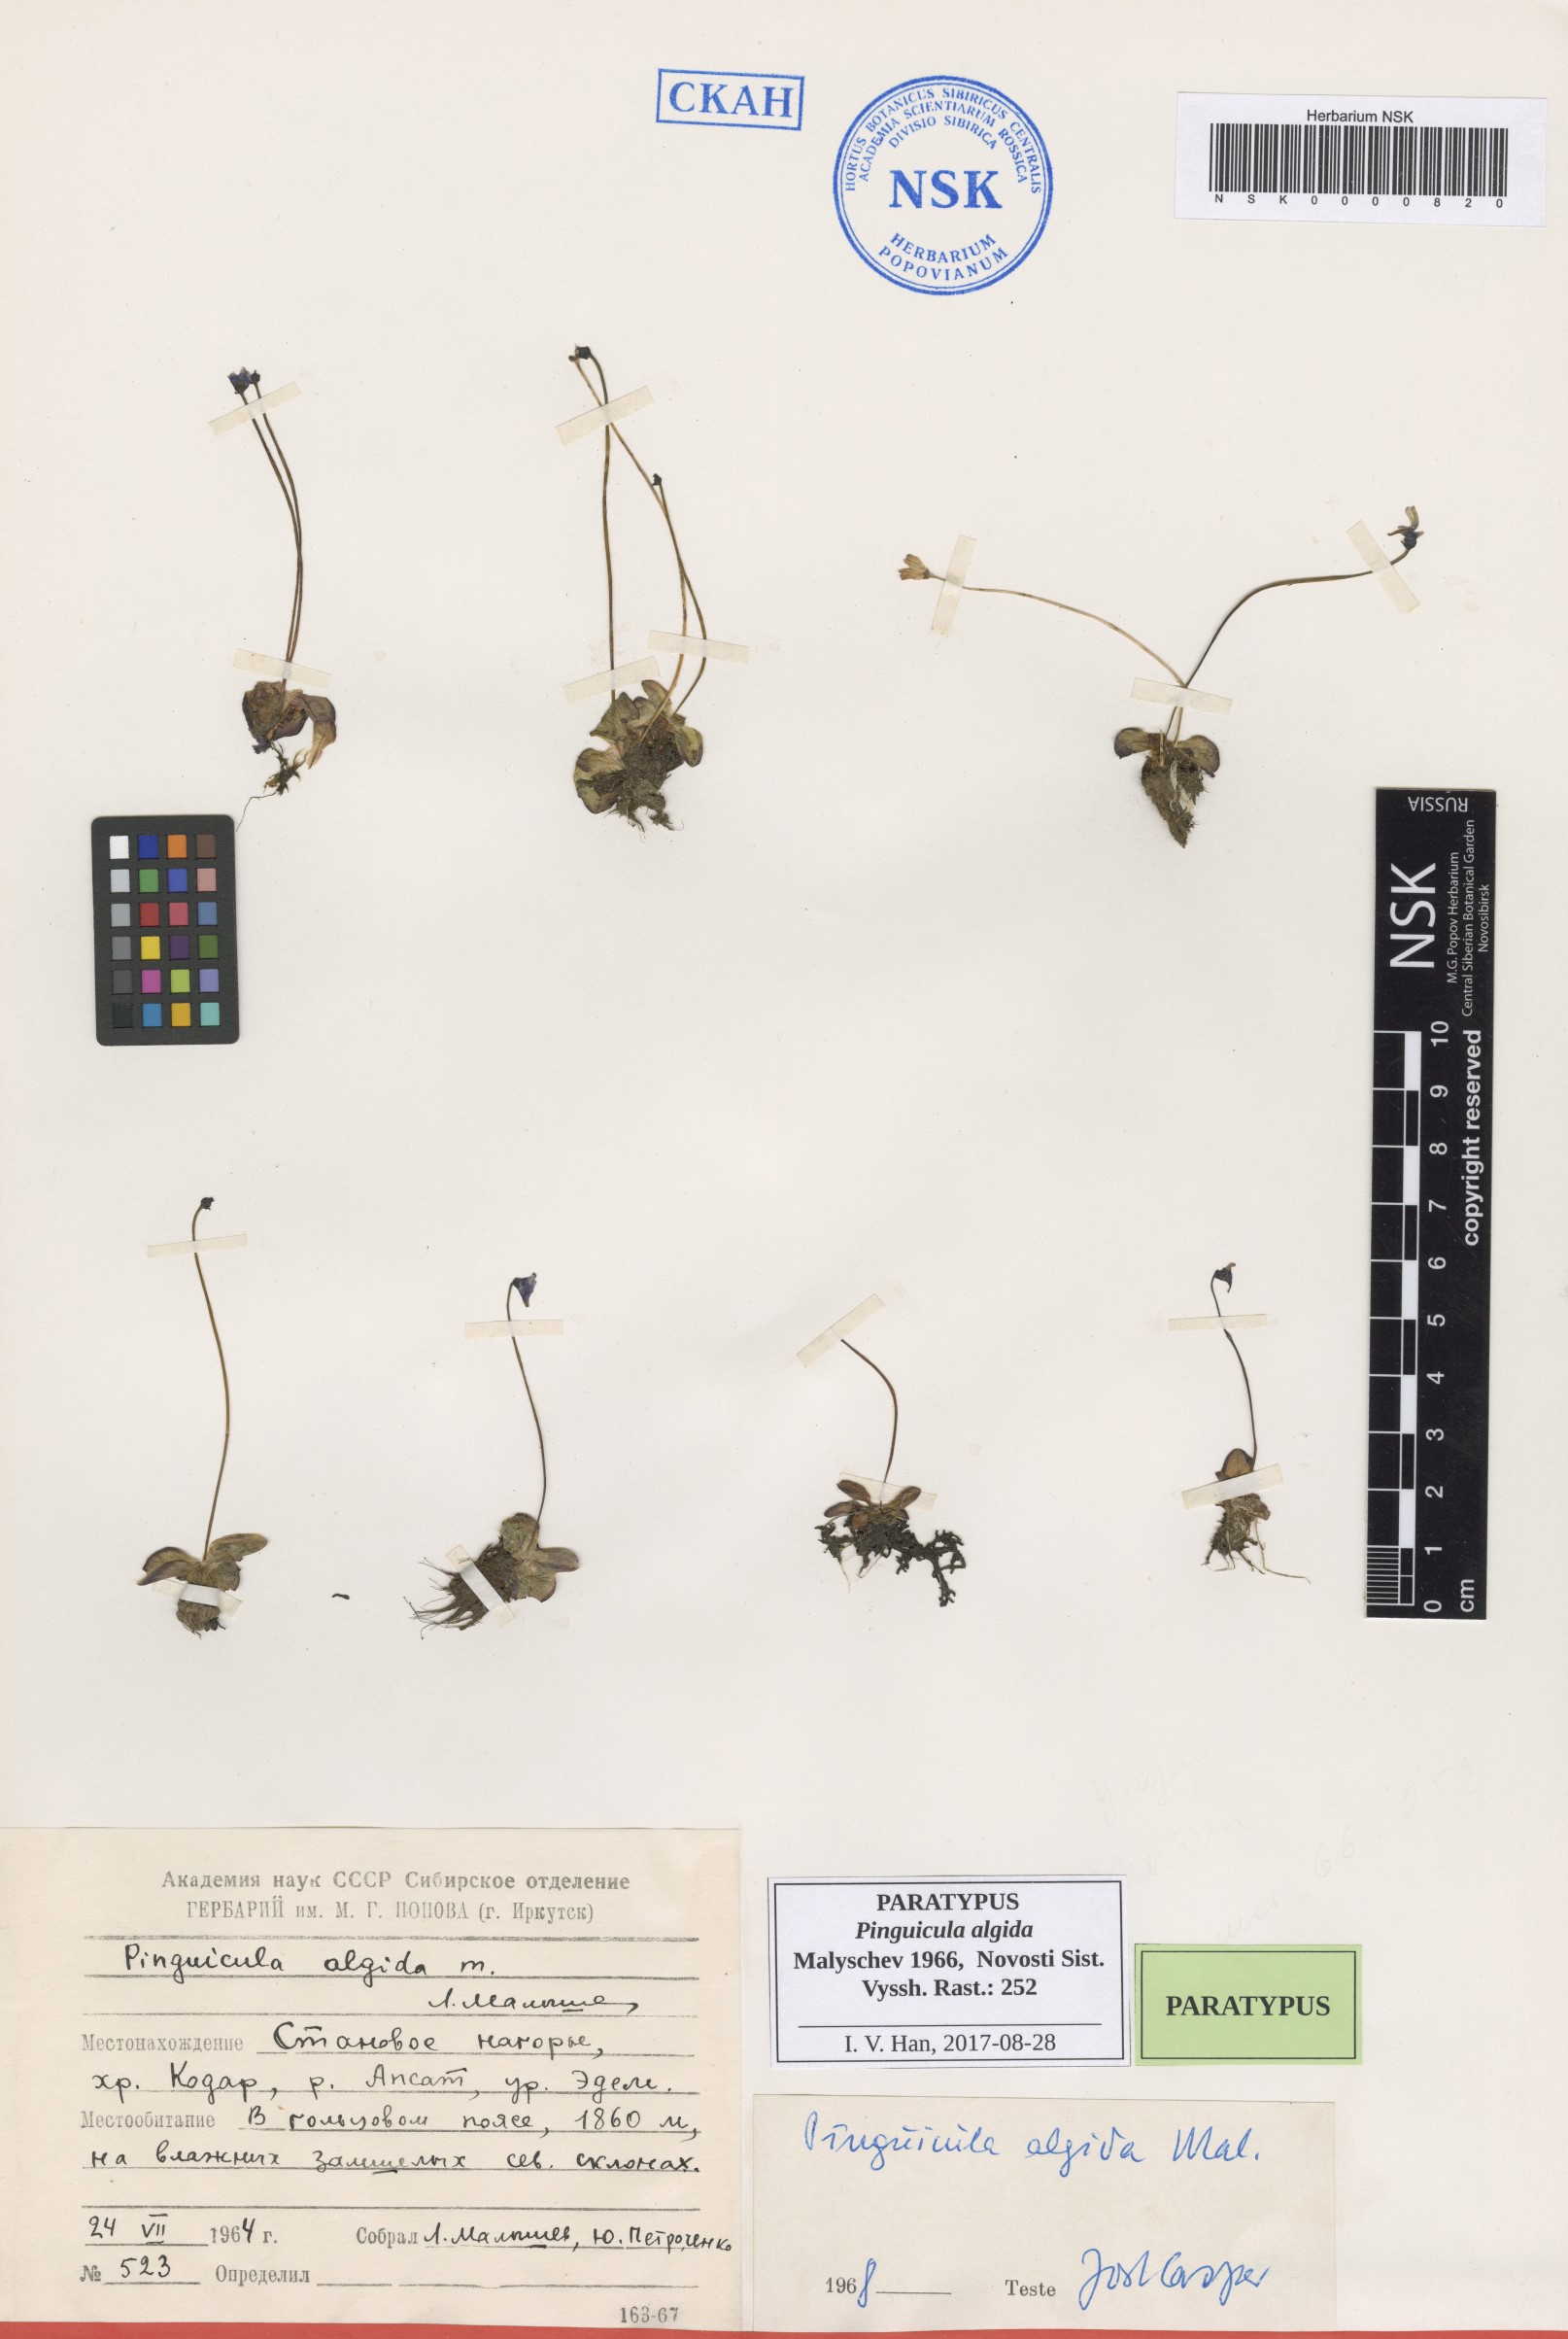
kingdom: Plantae
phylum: Tracheophyta
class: Magnoliopsida
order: Lamiales
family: Lentibulariaceae
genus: Pinguicula
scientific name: Pinguicula algida
